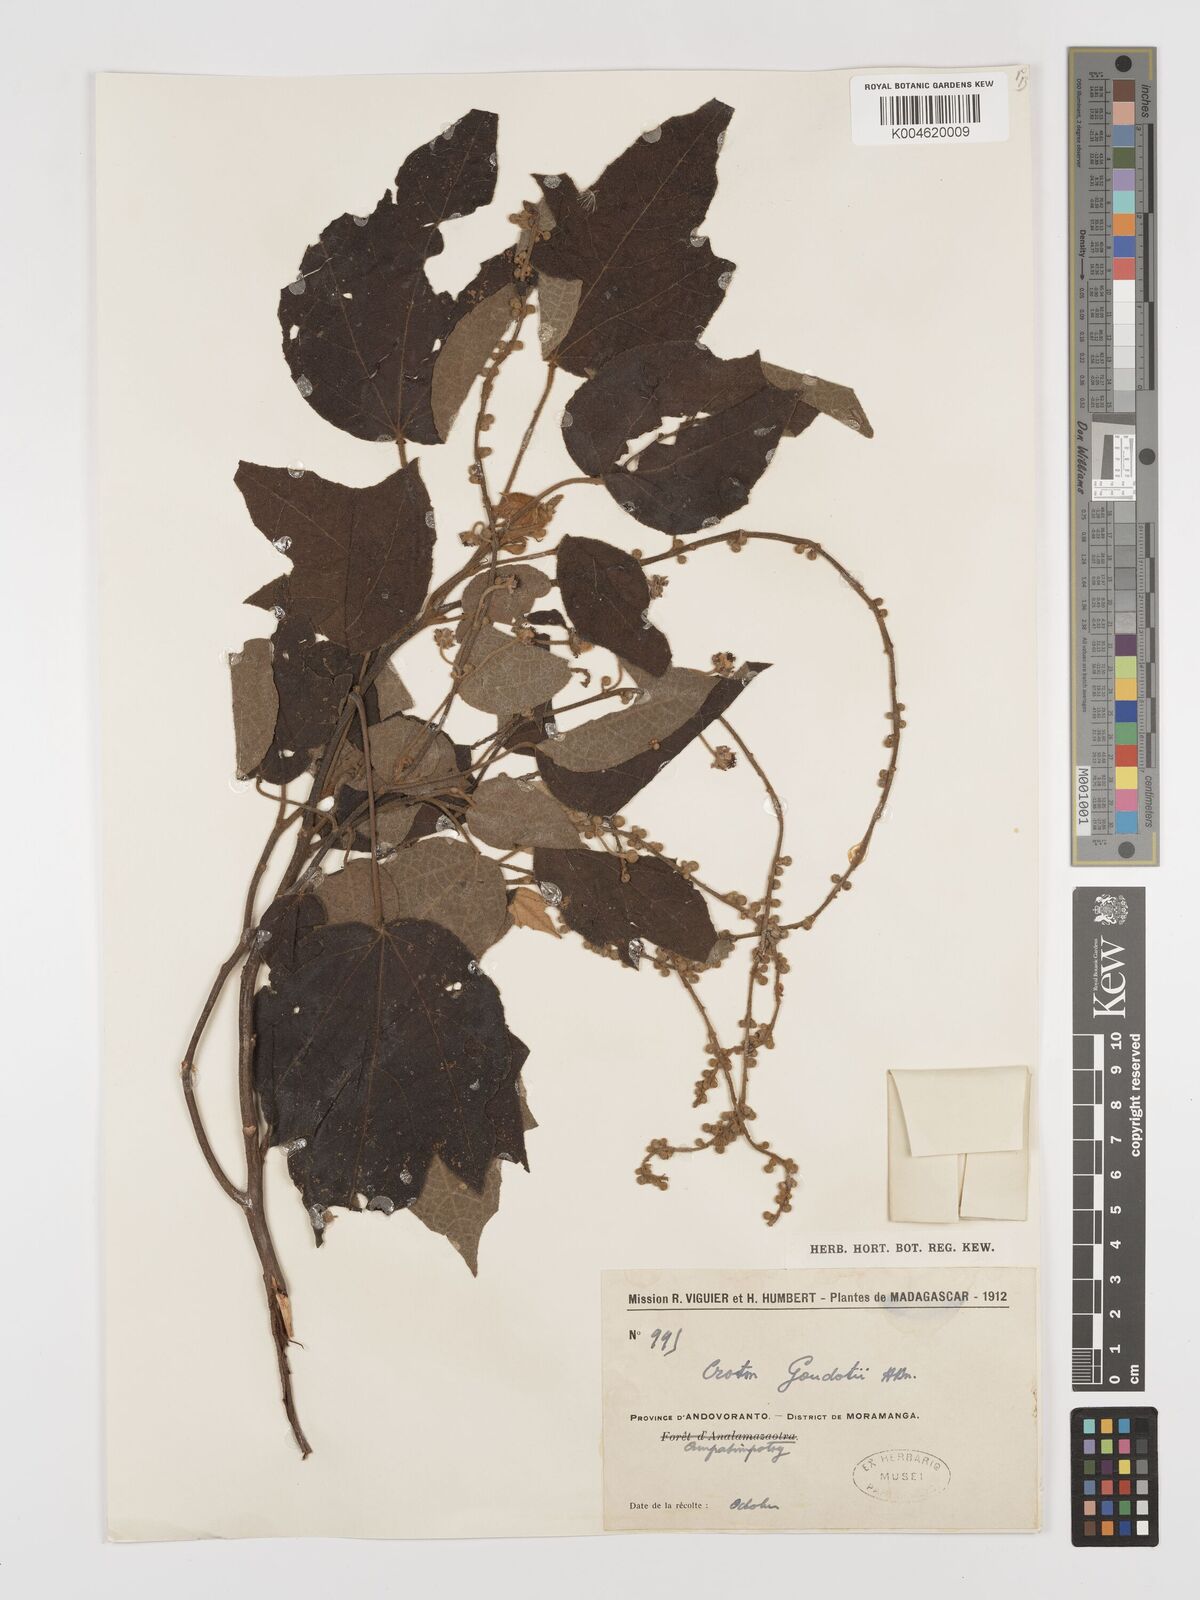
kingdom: Plantae
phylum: Tracheophyta
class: Magnoliopsida
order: Malpighiales
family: Euphorbiaceae
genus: Croton
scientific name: Croton goudotii
